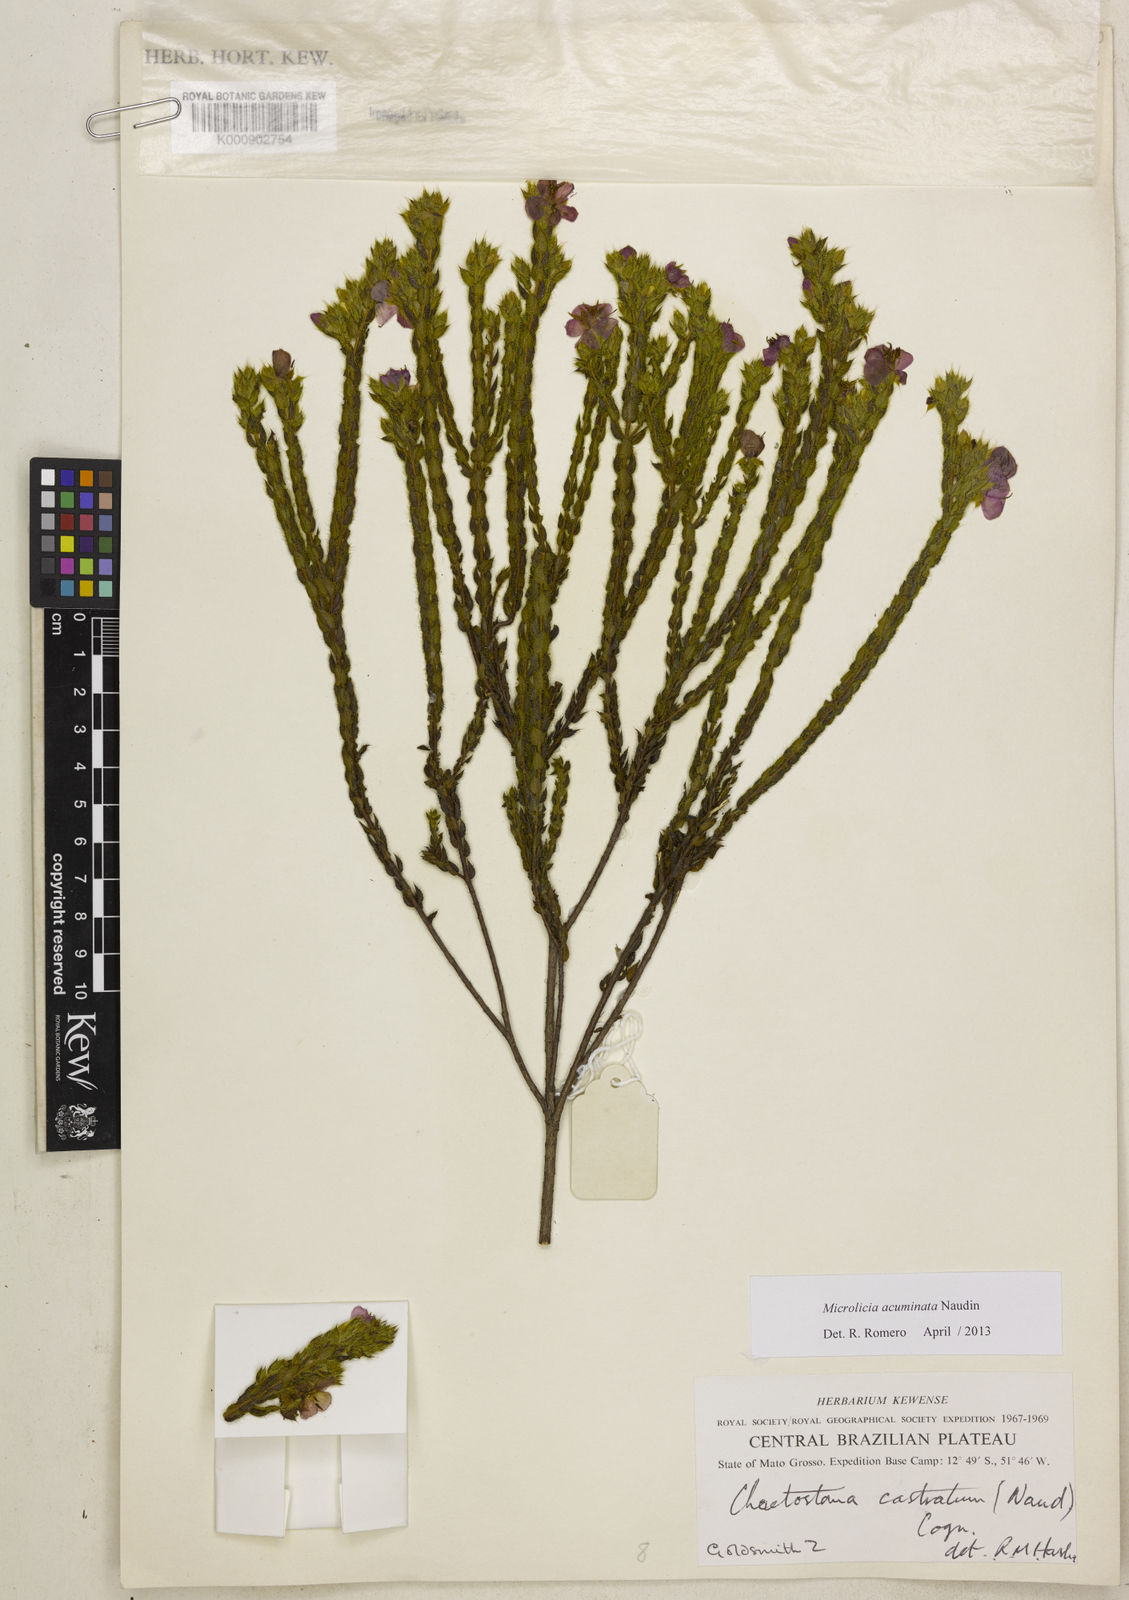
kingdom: Plantae
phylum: Tracheophyta
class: Magnoliopsida
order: Myrtales
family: Melastomataceae
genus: Microlicia
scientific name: Microlicia hirticalyx
